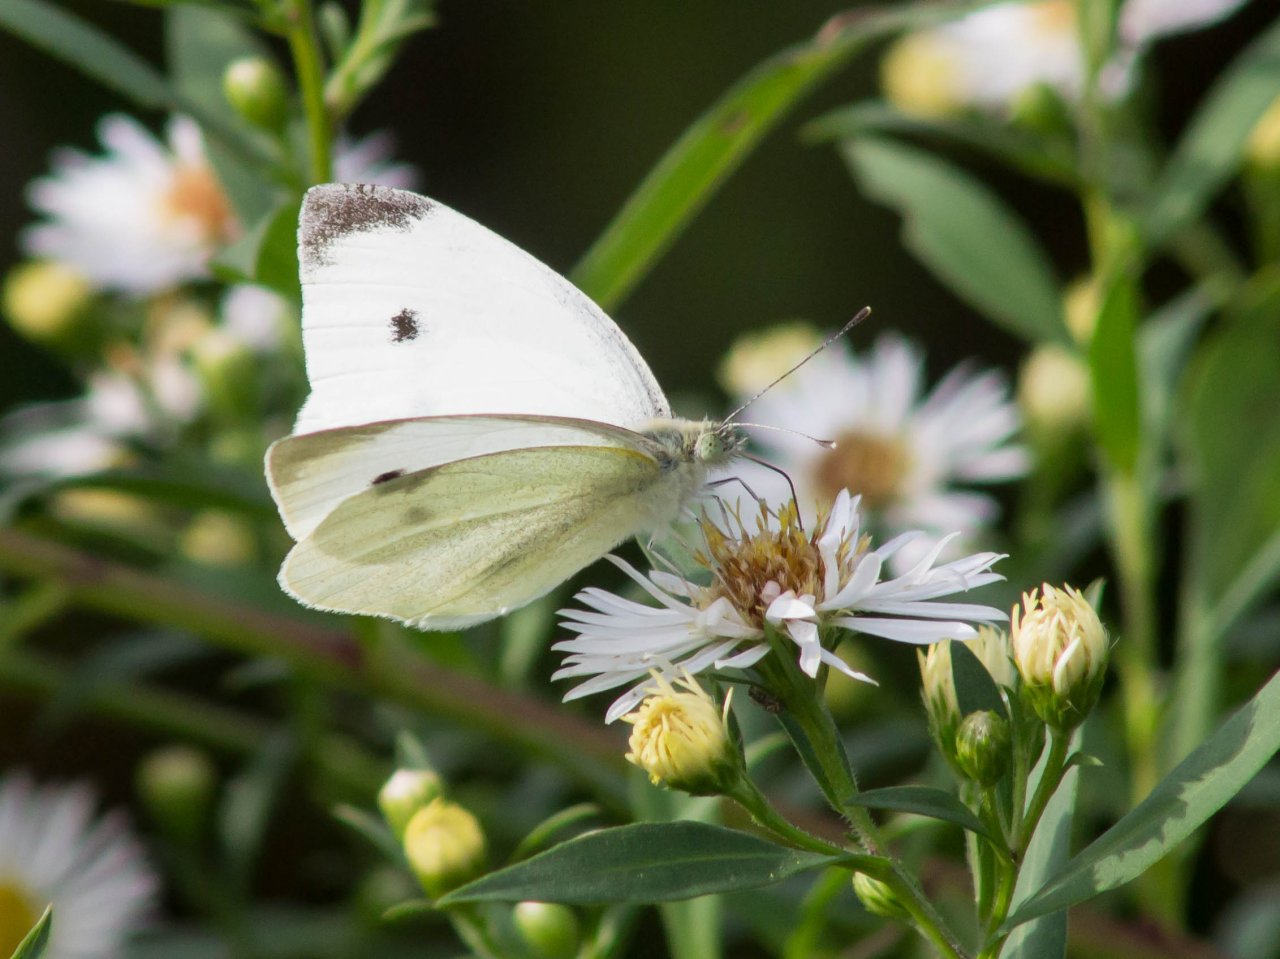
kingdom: Animalia
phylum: Arthropoda
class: Insecta
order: Lepidoptera
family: Pieridae
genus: Pieris
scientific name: Pieris rapae
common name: Cabbage White
